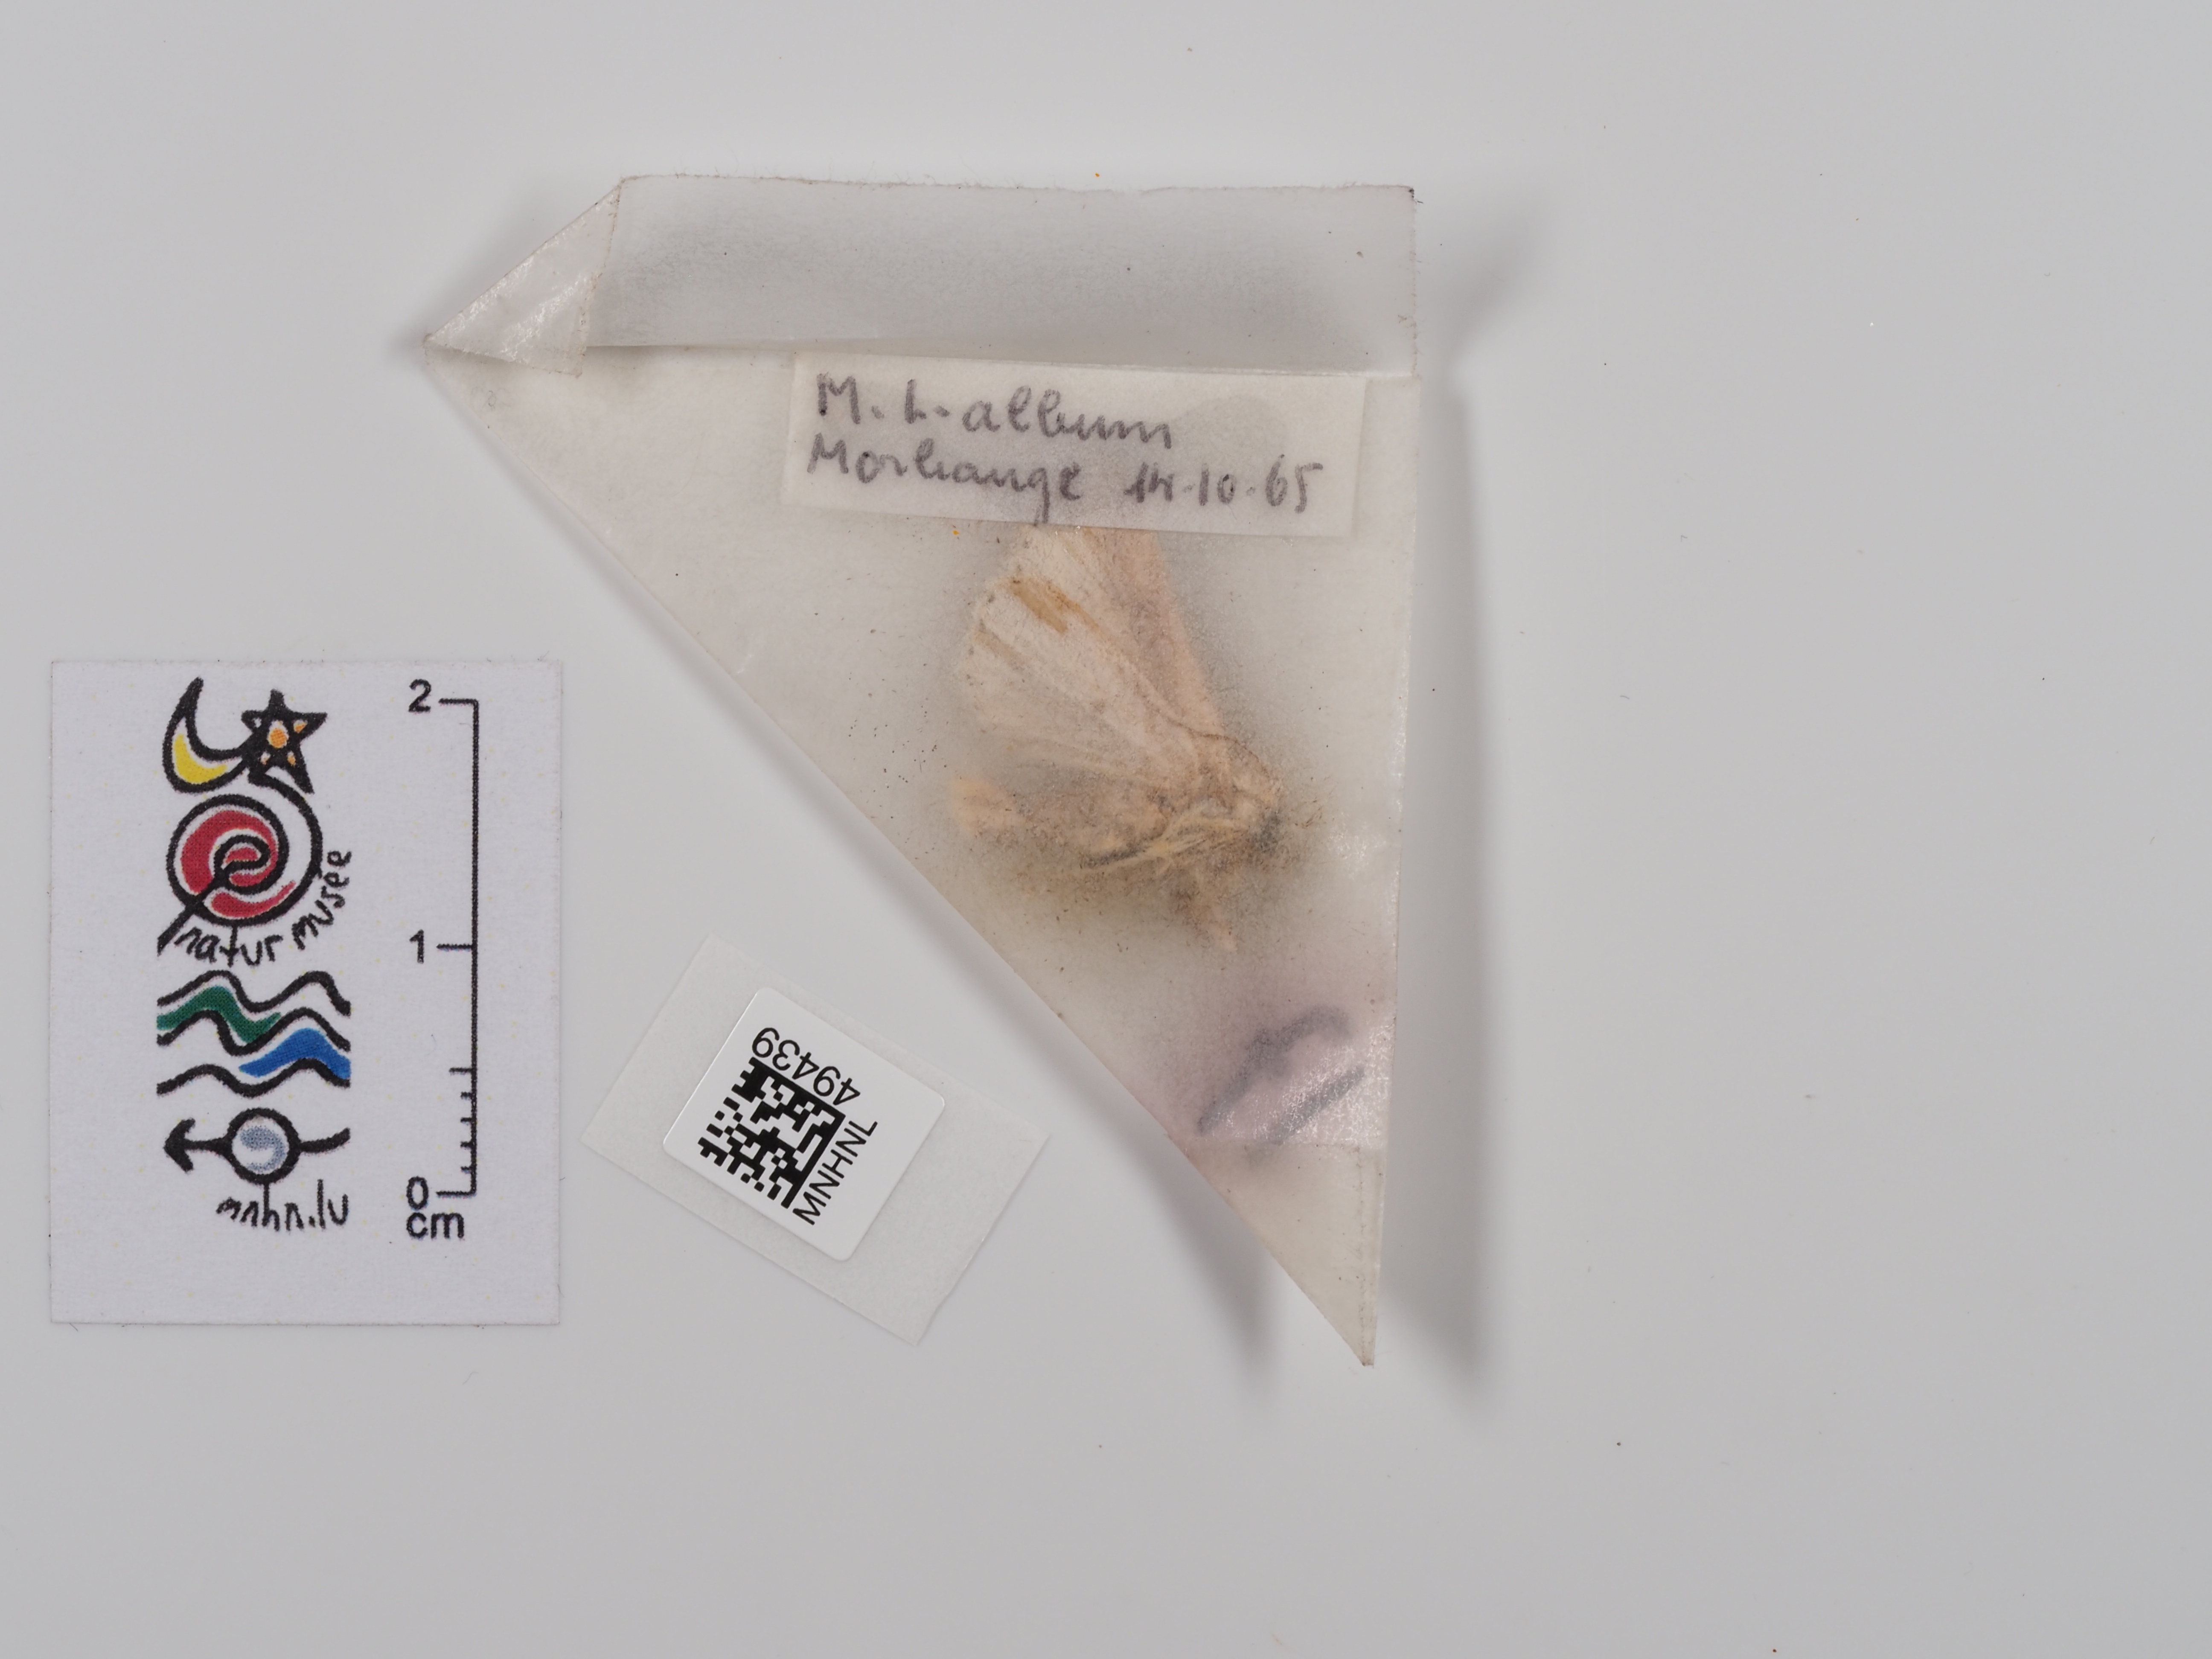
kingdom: Animalia
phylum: Arthropoda
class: Insecta
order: Lepidoptera
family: Noctuidae
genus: Mythimna
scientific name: Mythimna l-album
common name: L-album wainscot
